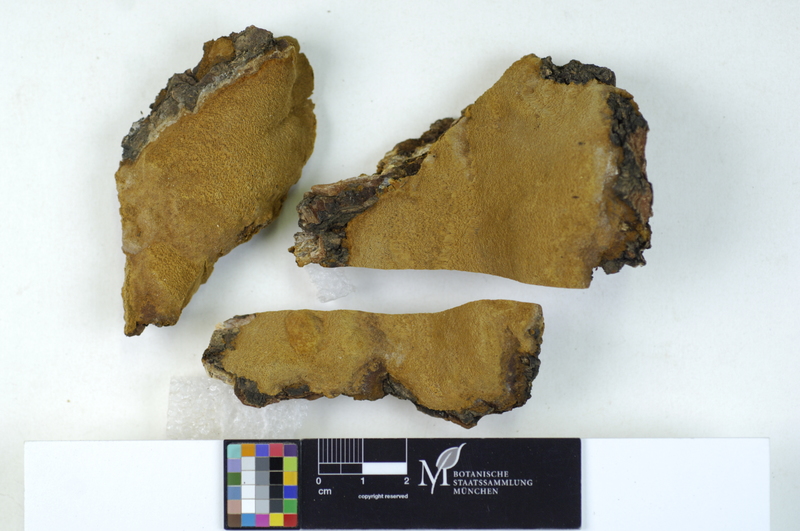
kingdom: Plantae
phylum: Tracheophyta
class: Magnoliopsida
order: Fagales
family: Fagaceae
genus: Quercus
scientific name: Quercus
